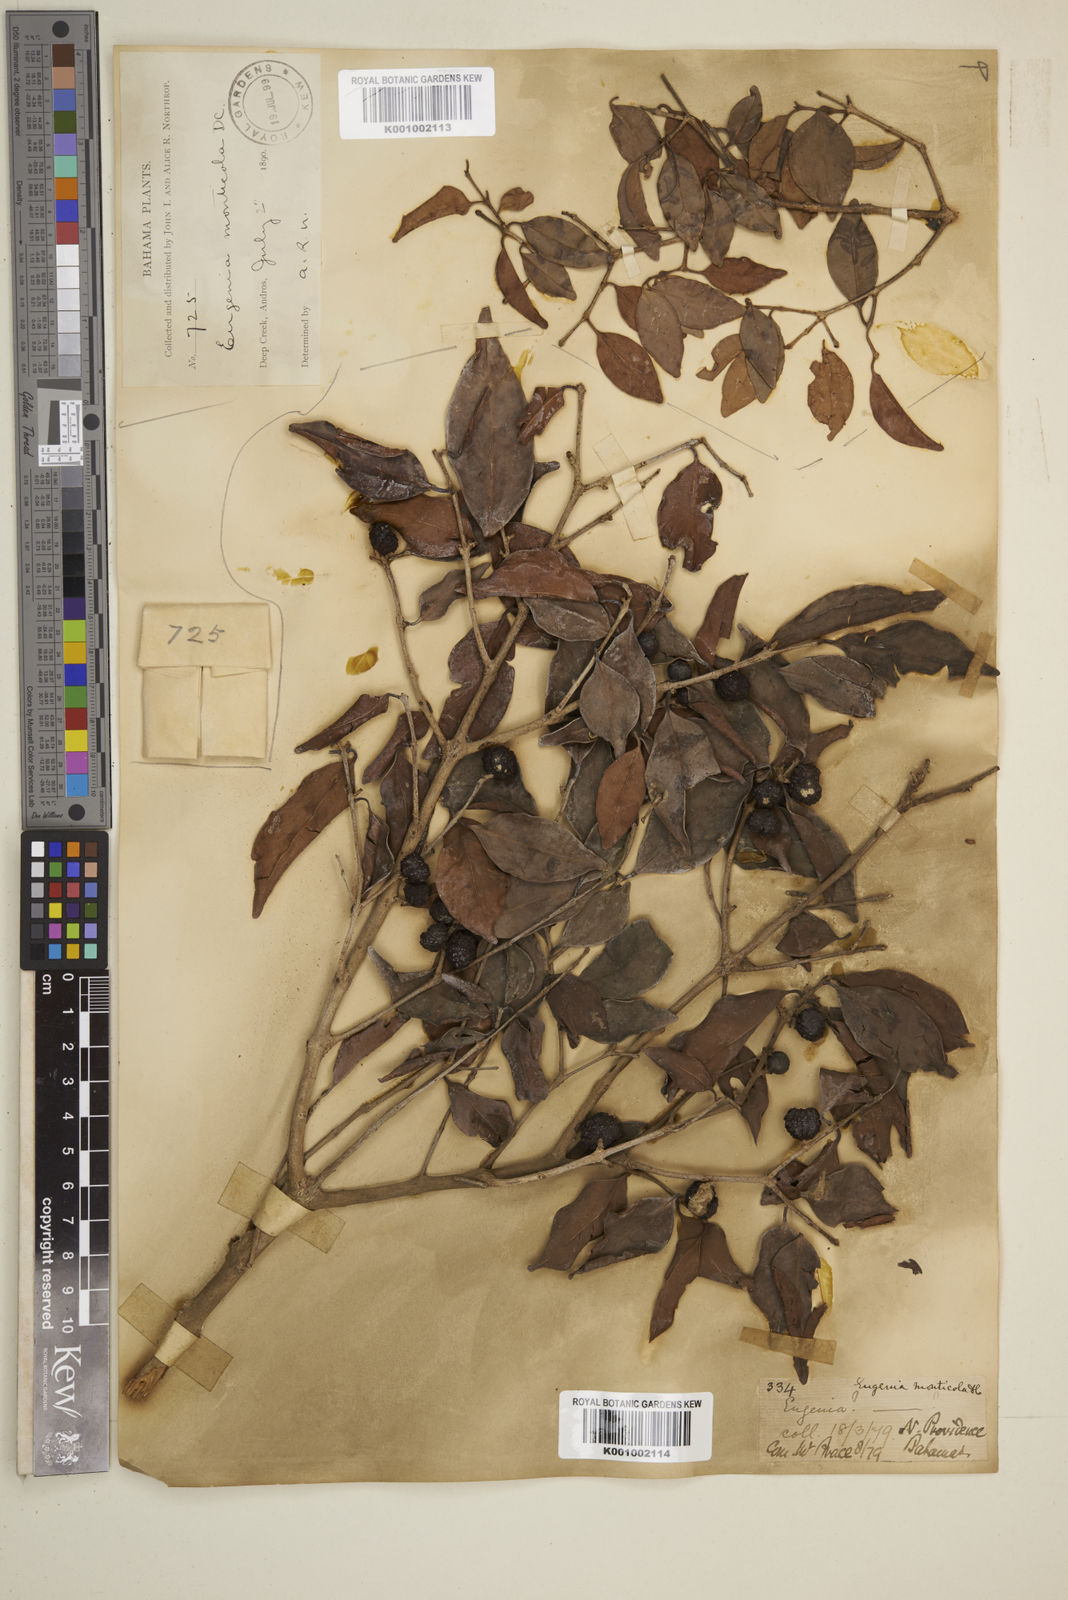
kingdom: Plantae
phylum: Tracheophyta
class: Magnoliopsida
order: Myrtales
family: Myrtaceae
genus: Eugenia
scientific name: Eugenia monticola
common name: Birds berry
